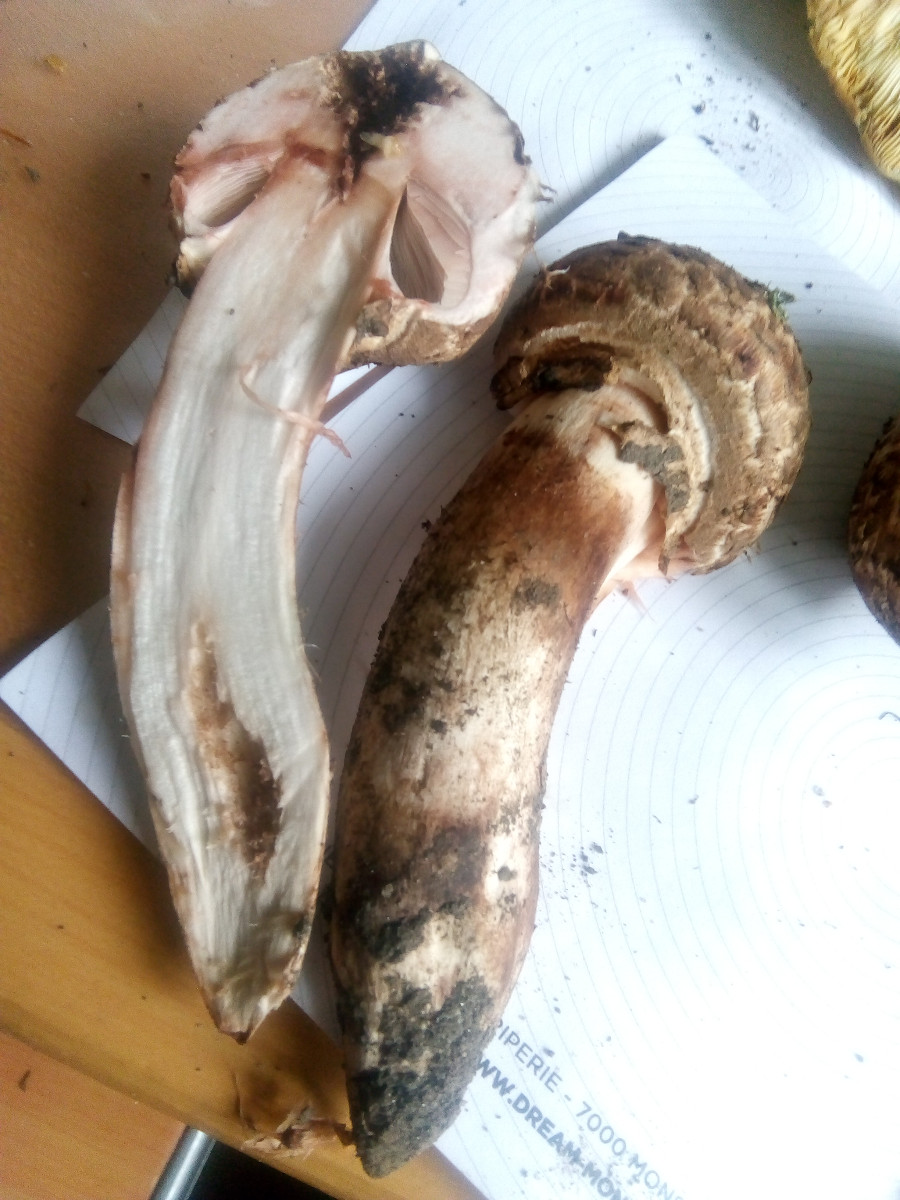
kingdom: Fungi
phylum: Basidiomycota
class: Agaricomycetes
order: Agaricales
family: Agaricaceae
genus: Agaricus
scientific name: Agaricus bohusii
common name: krumskællet champignon
